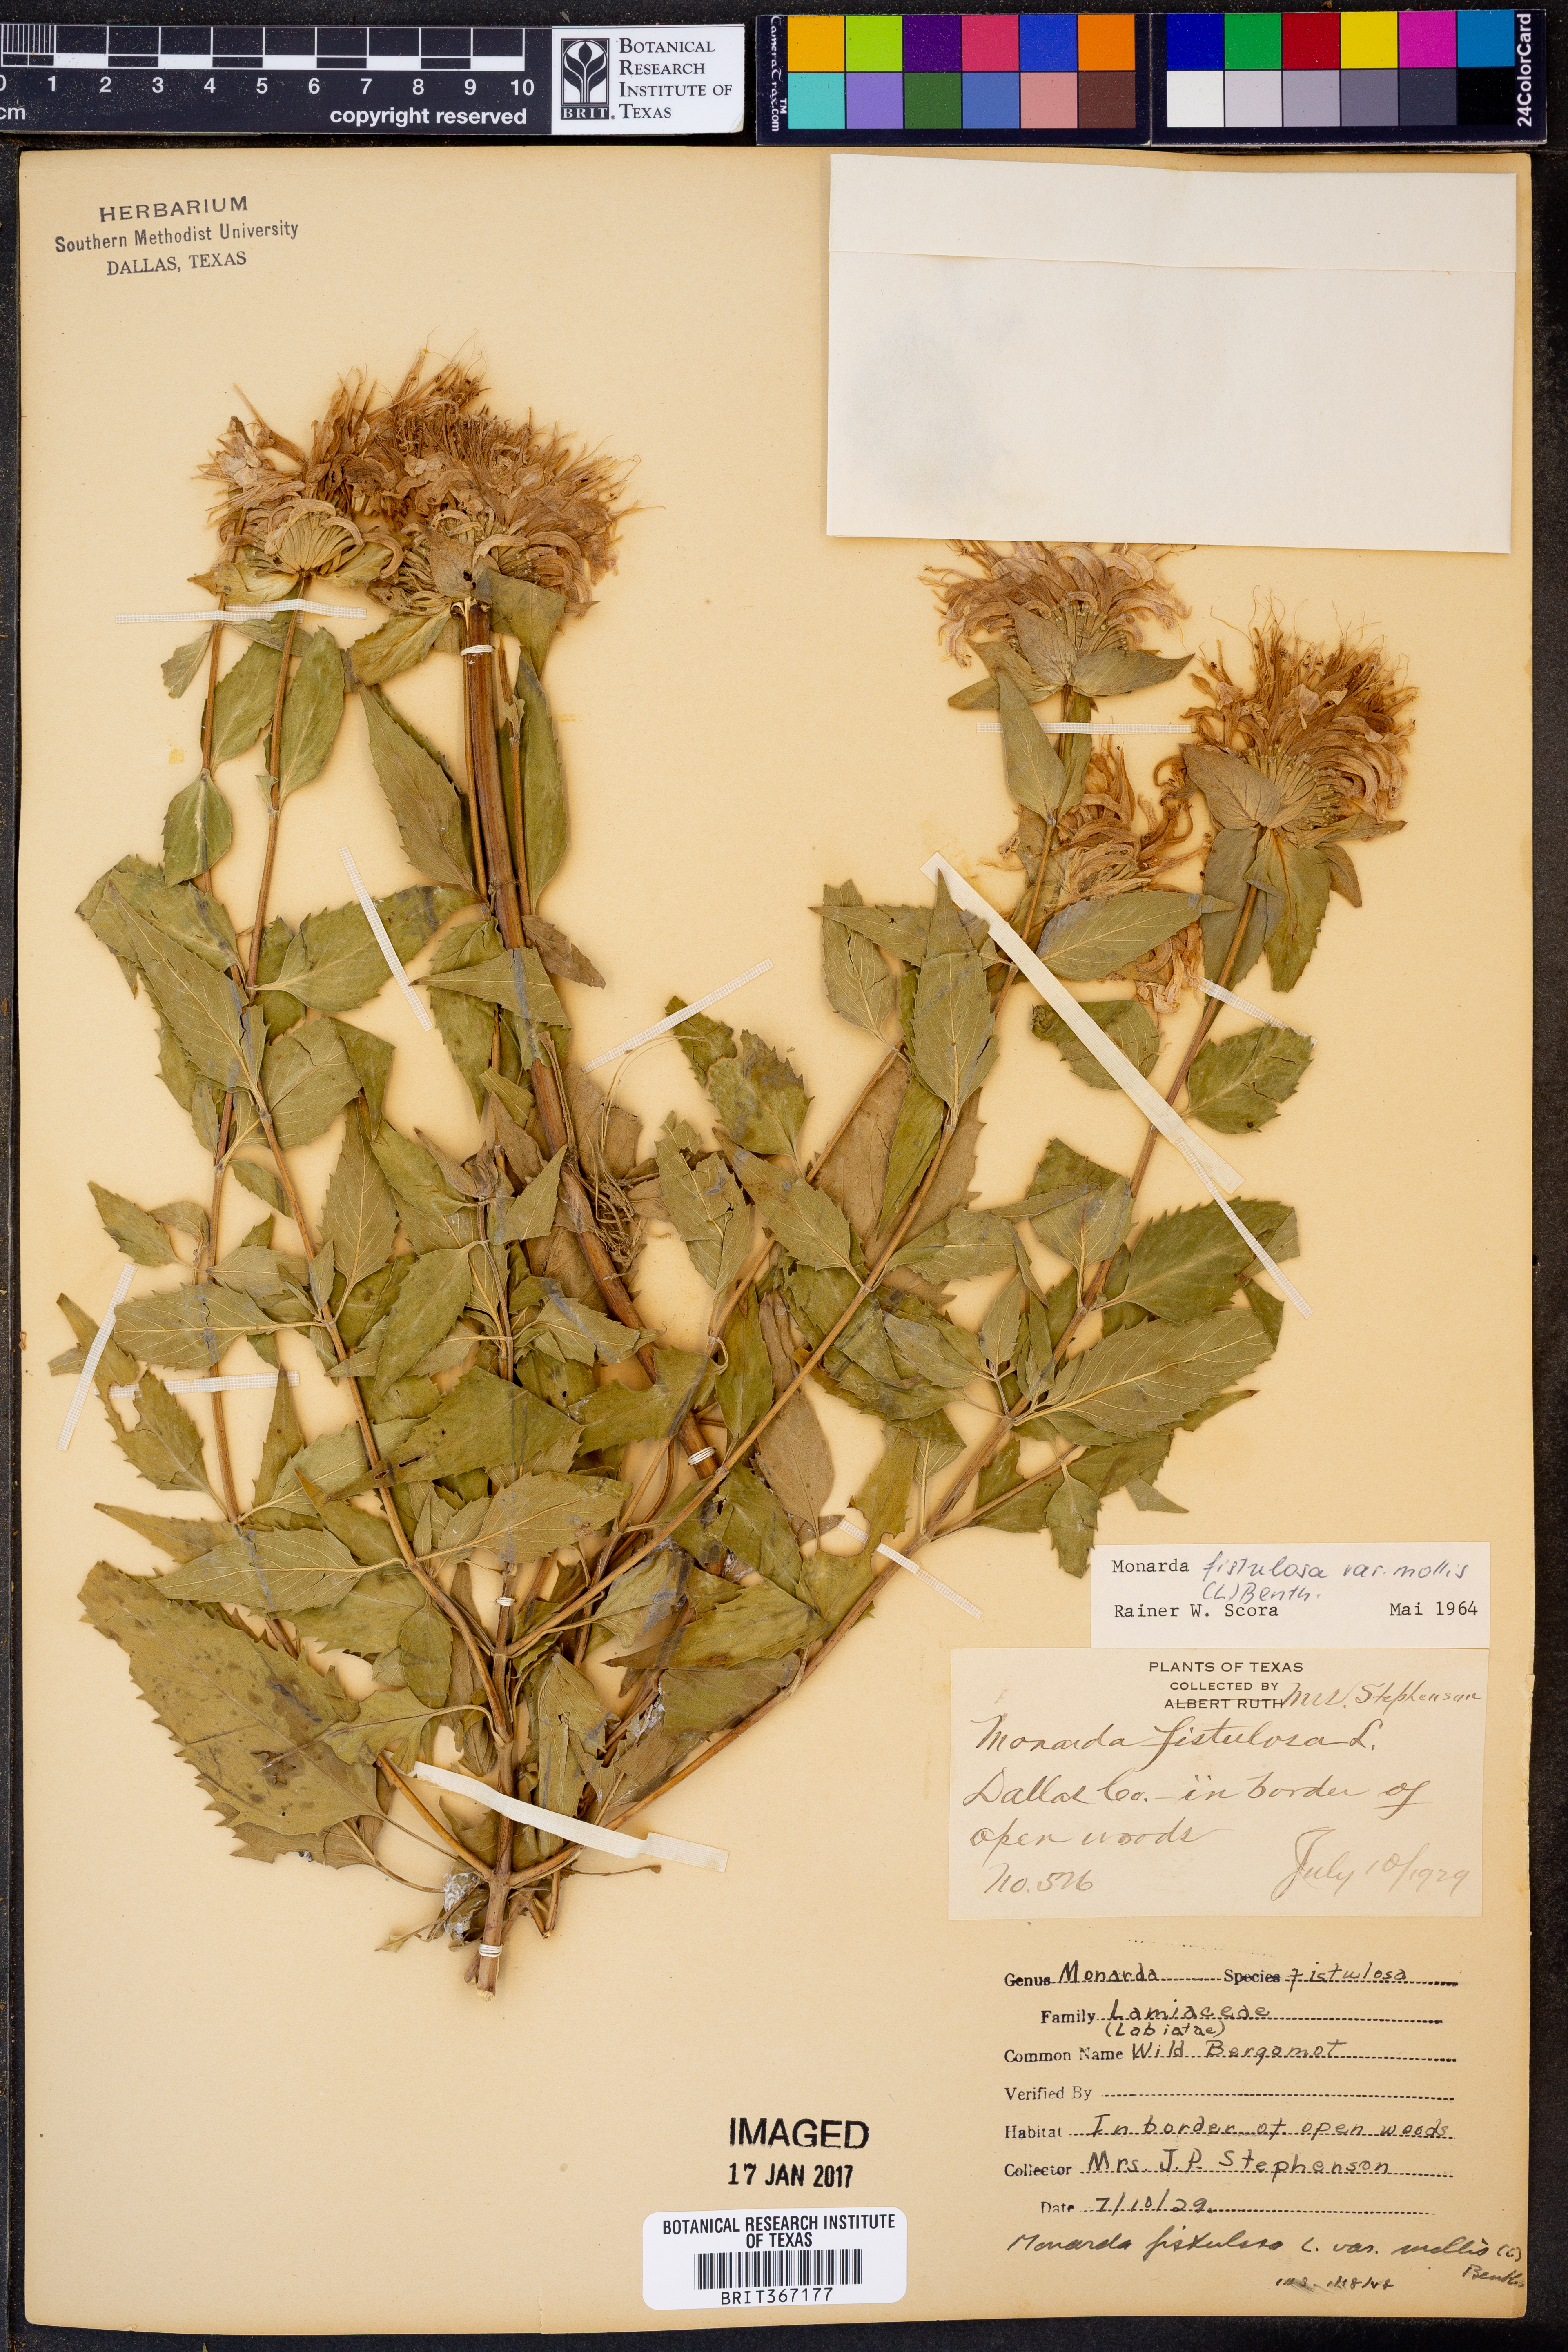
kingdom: Plantae
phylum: Tracheophyta
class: Magnoliopsida
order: Lamiales
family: Lamiaceae
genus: Monarda
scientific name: Monarda fistulosa
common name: Purple beebalm
